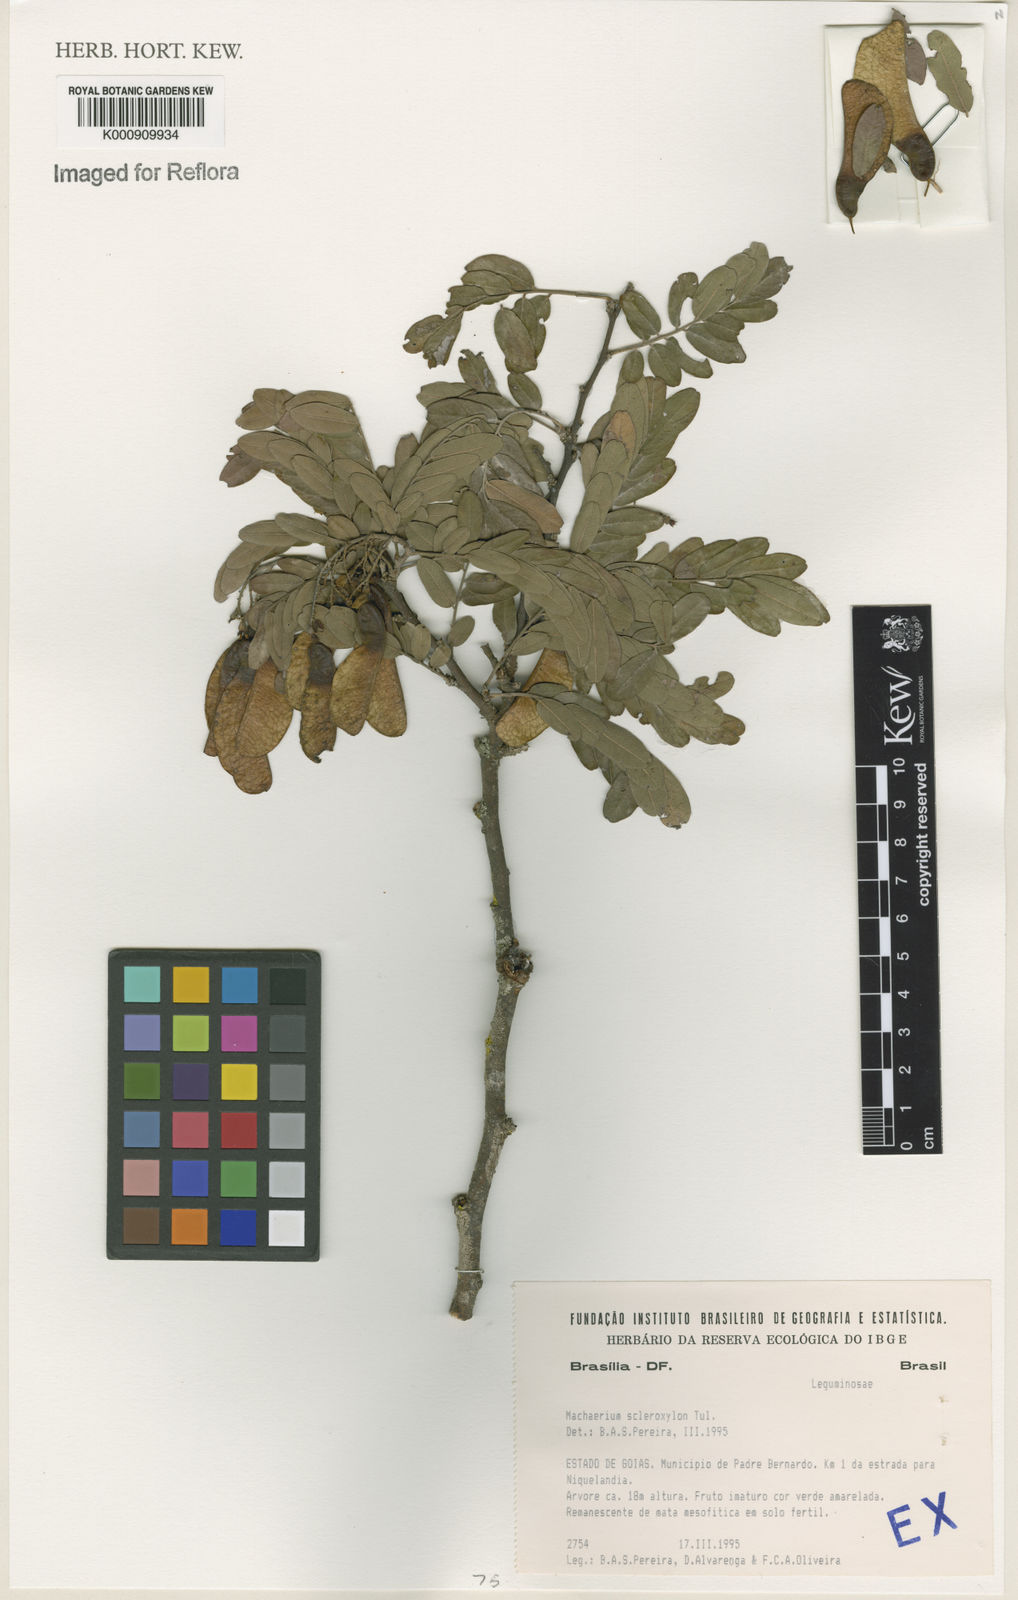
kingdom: Plantae
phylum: Tracheophyta
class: Magnoliopsida
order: Fabales
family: Fabaceae
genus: Machaerium
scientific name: Machaerium scleroxylon
